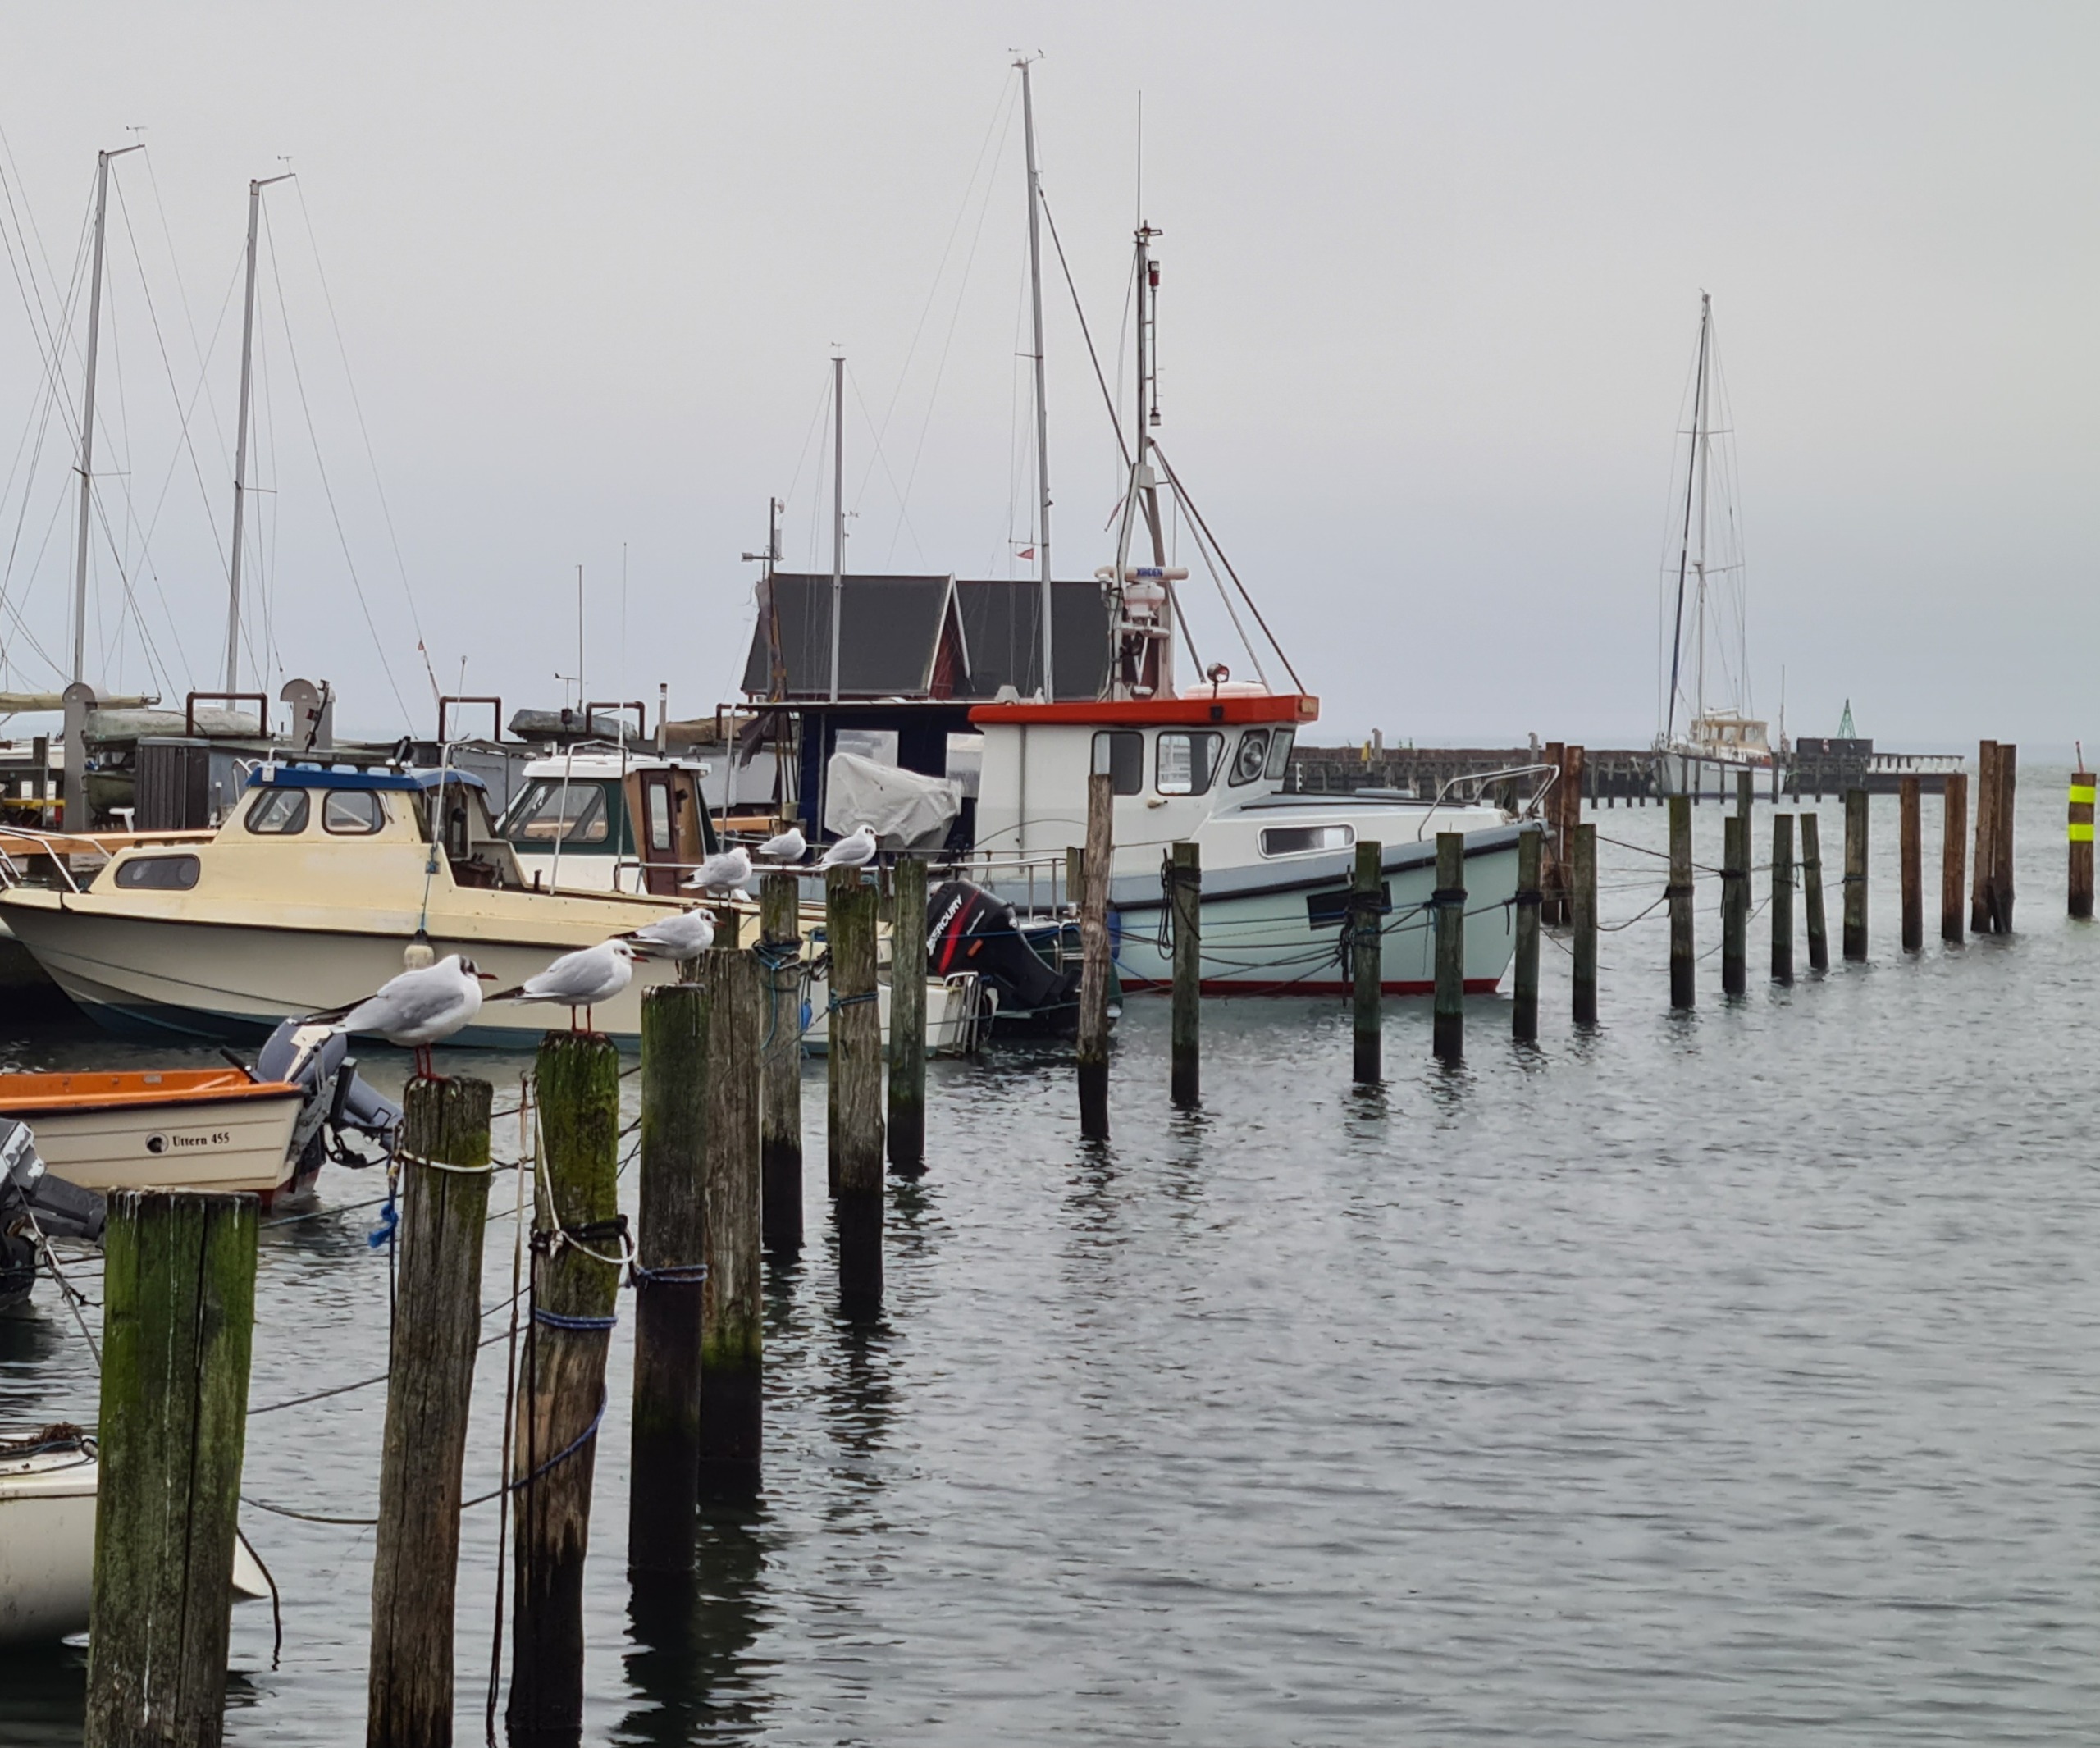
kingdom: Animalia
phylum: Chordata
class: Aves
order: Charadriiformes
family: Laridae
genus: Chroicocephalus
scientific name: Chroicocephalus ridibundus
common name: Hættemåge
